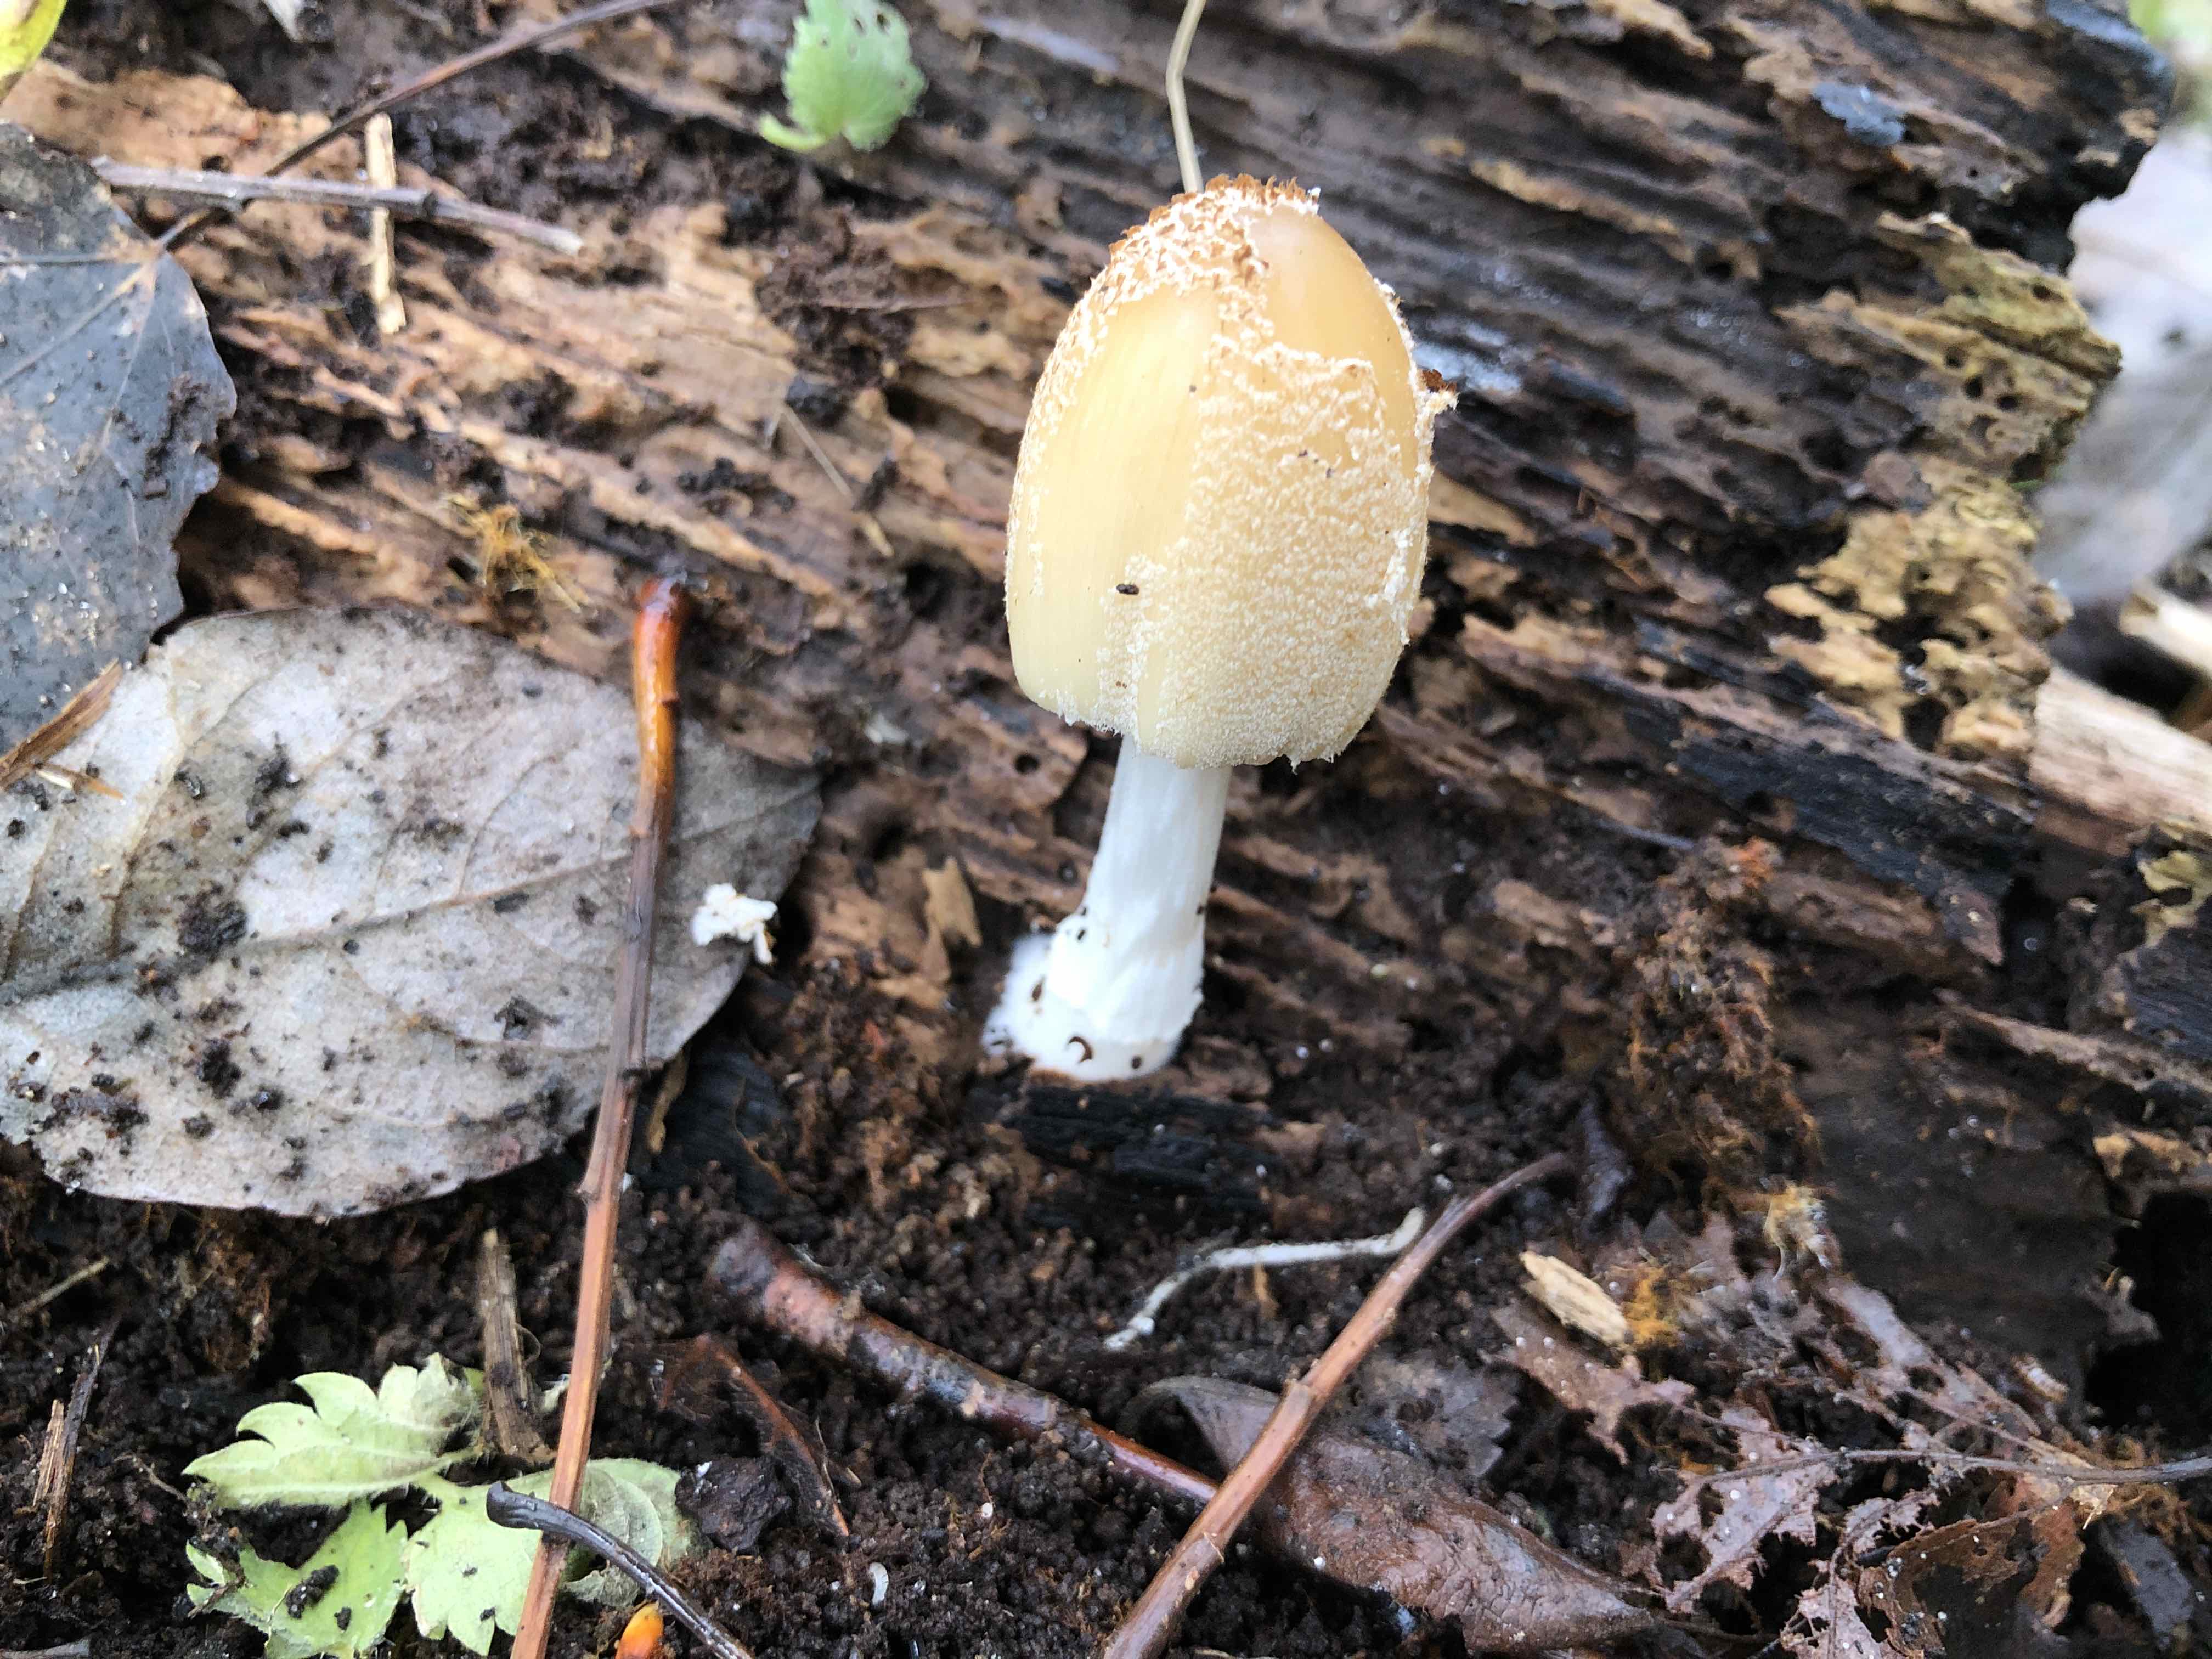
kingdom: Fungi
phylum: Basidiomycota
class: Agaricomycetes
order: Agaricales
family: Psathyrellaceae
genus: Coprinellus
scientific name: Coprinellus
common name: blækhat
